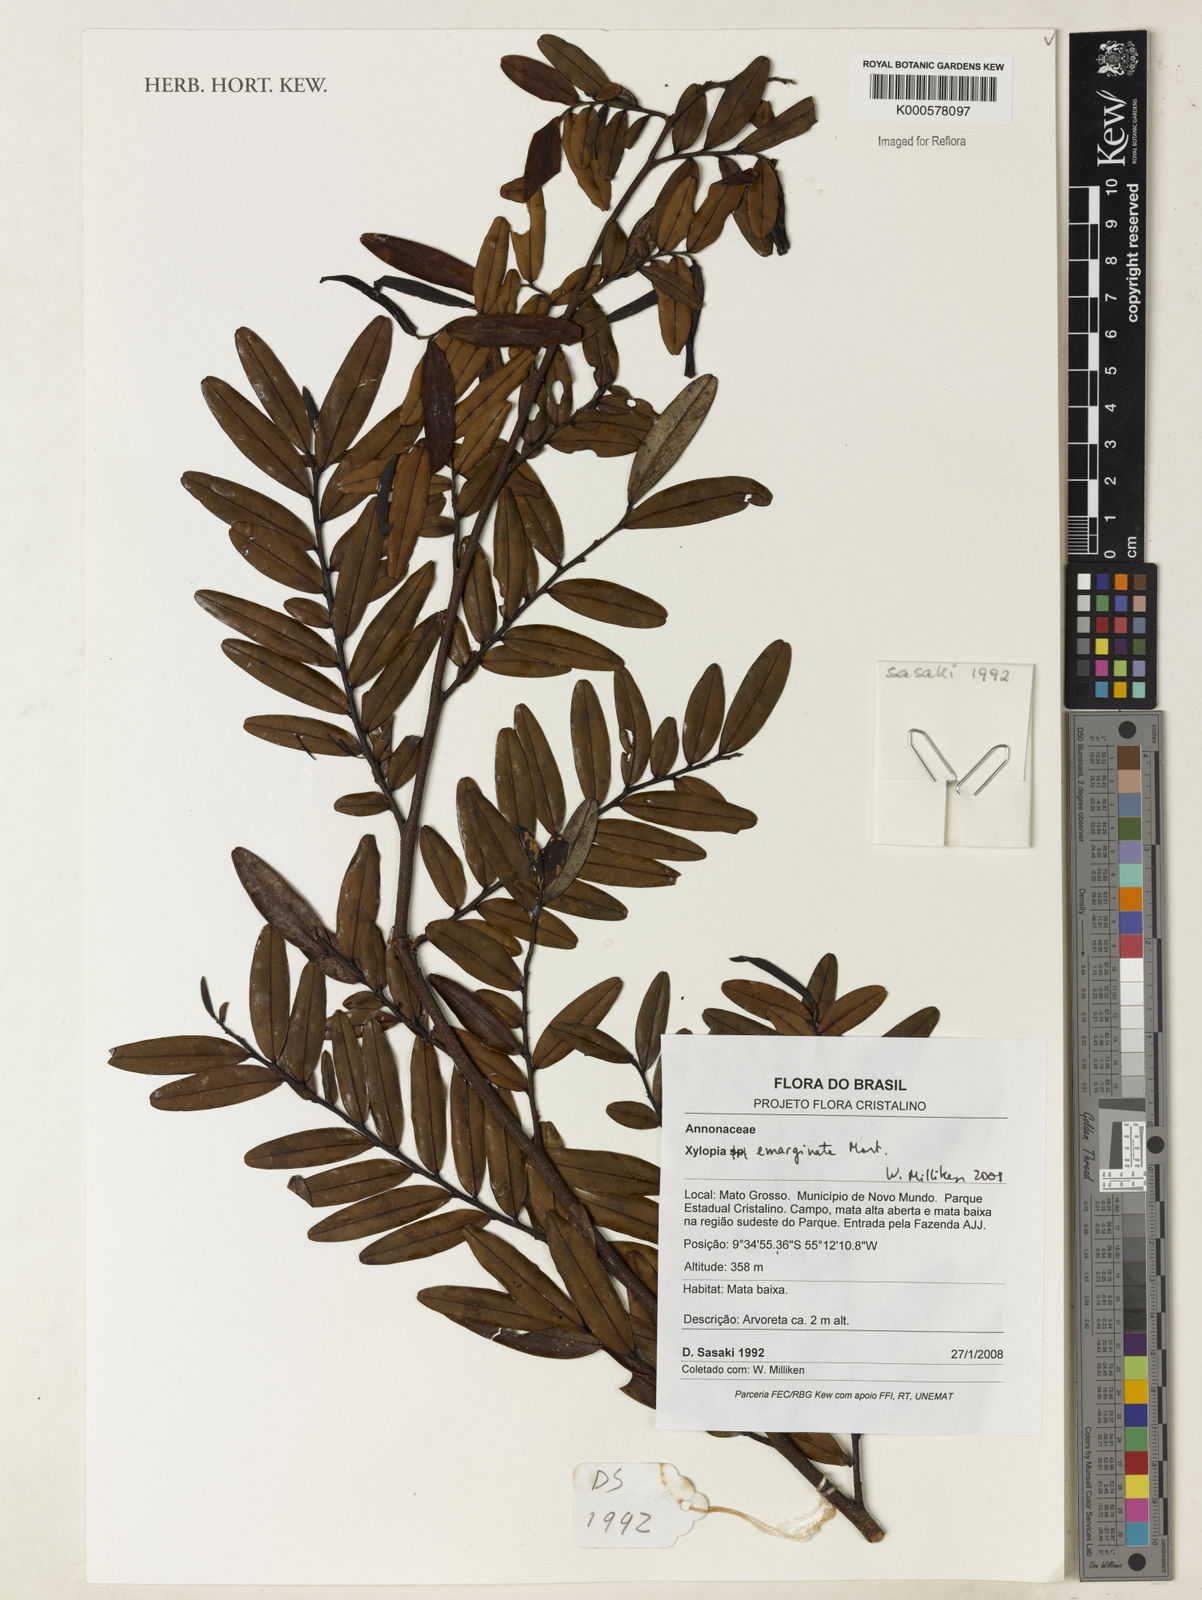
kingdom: Plantae
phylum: Tracheophyta
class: Magnoliopsida
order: Magnoliales
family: Annonaceae
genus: Xylopia
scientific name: Xylopia emarginata
